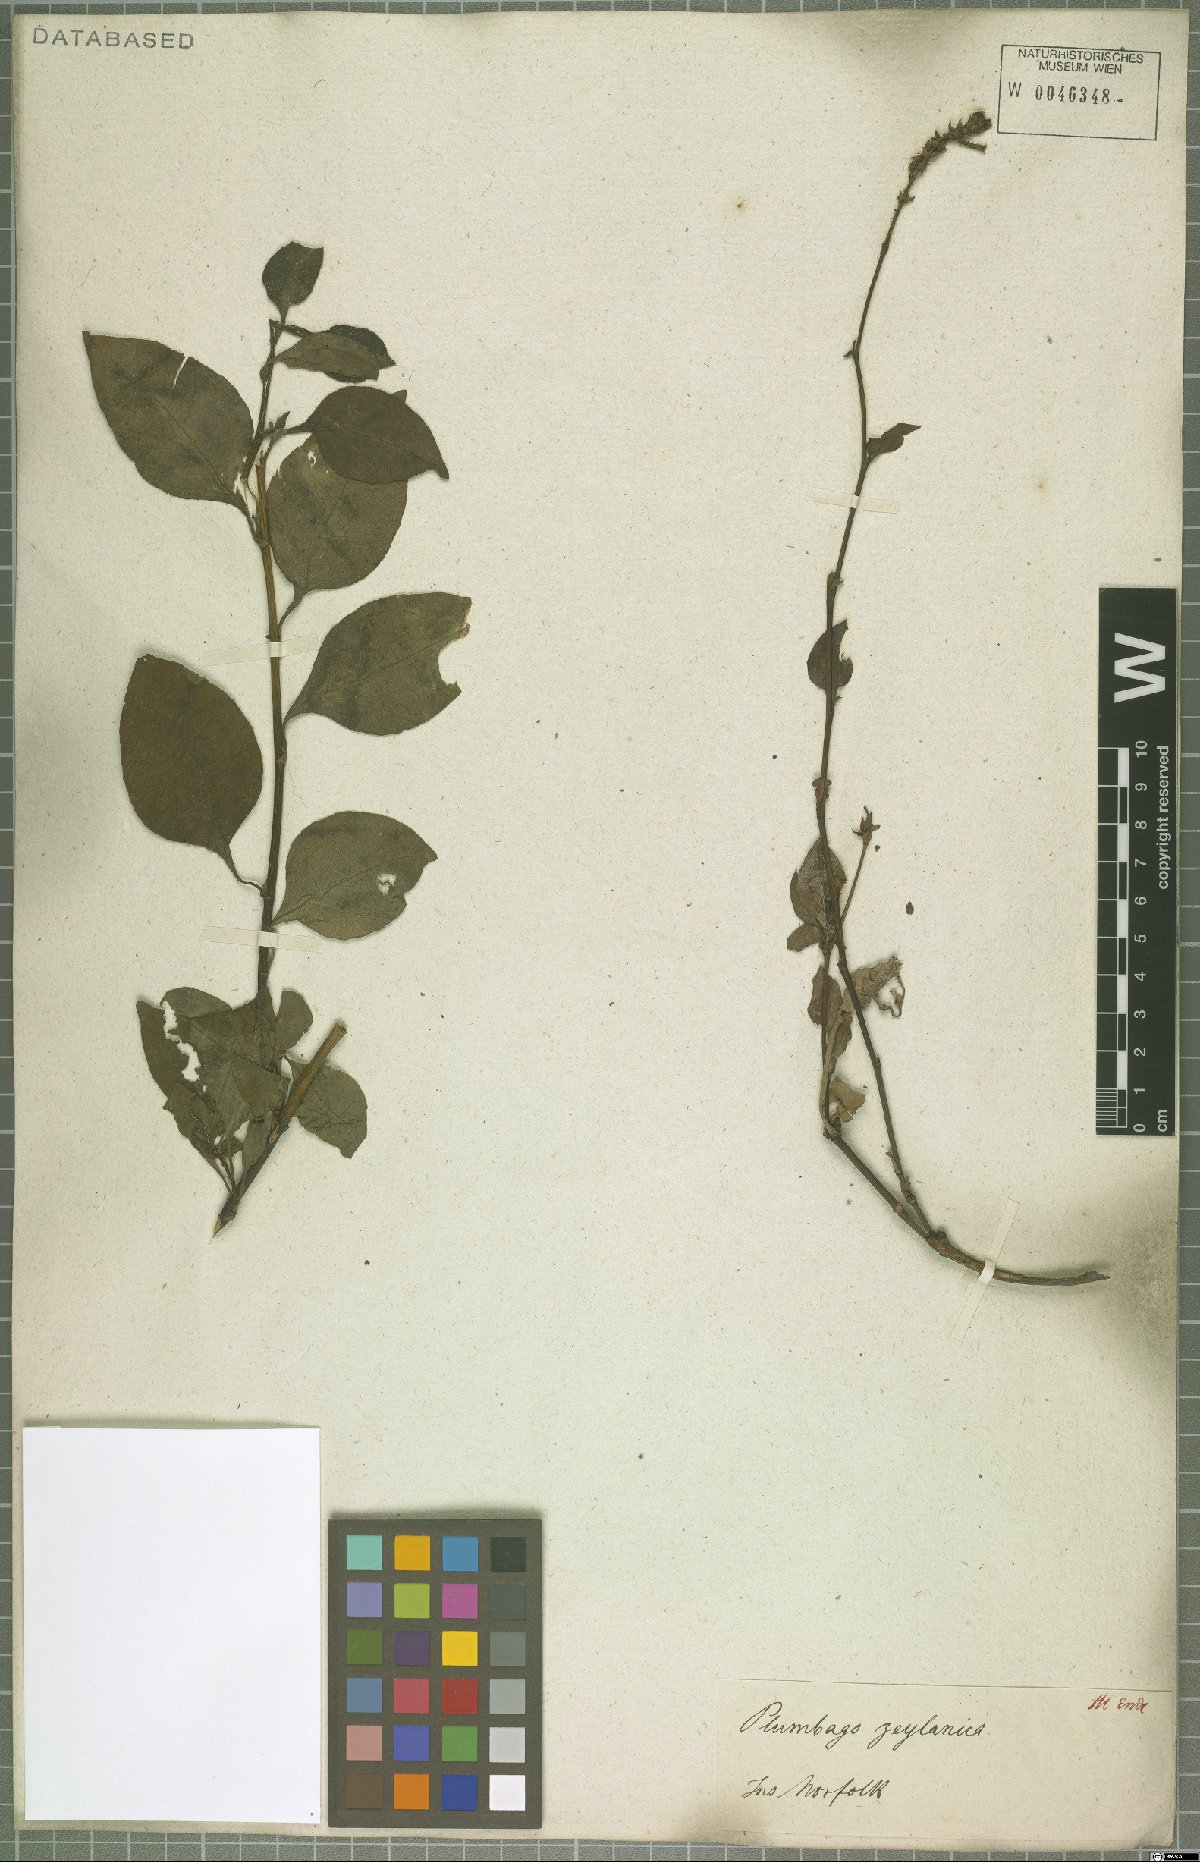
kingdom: Plantae
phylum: Tracheophyta
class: Magnoliopsida
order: Caryophyllales
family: Plumbaginaceae
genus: Plumbago
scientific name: Plumbago zeylanica
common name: Doctorbush
